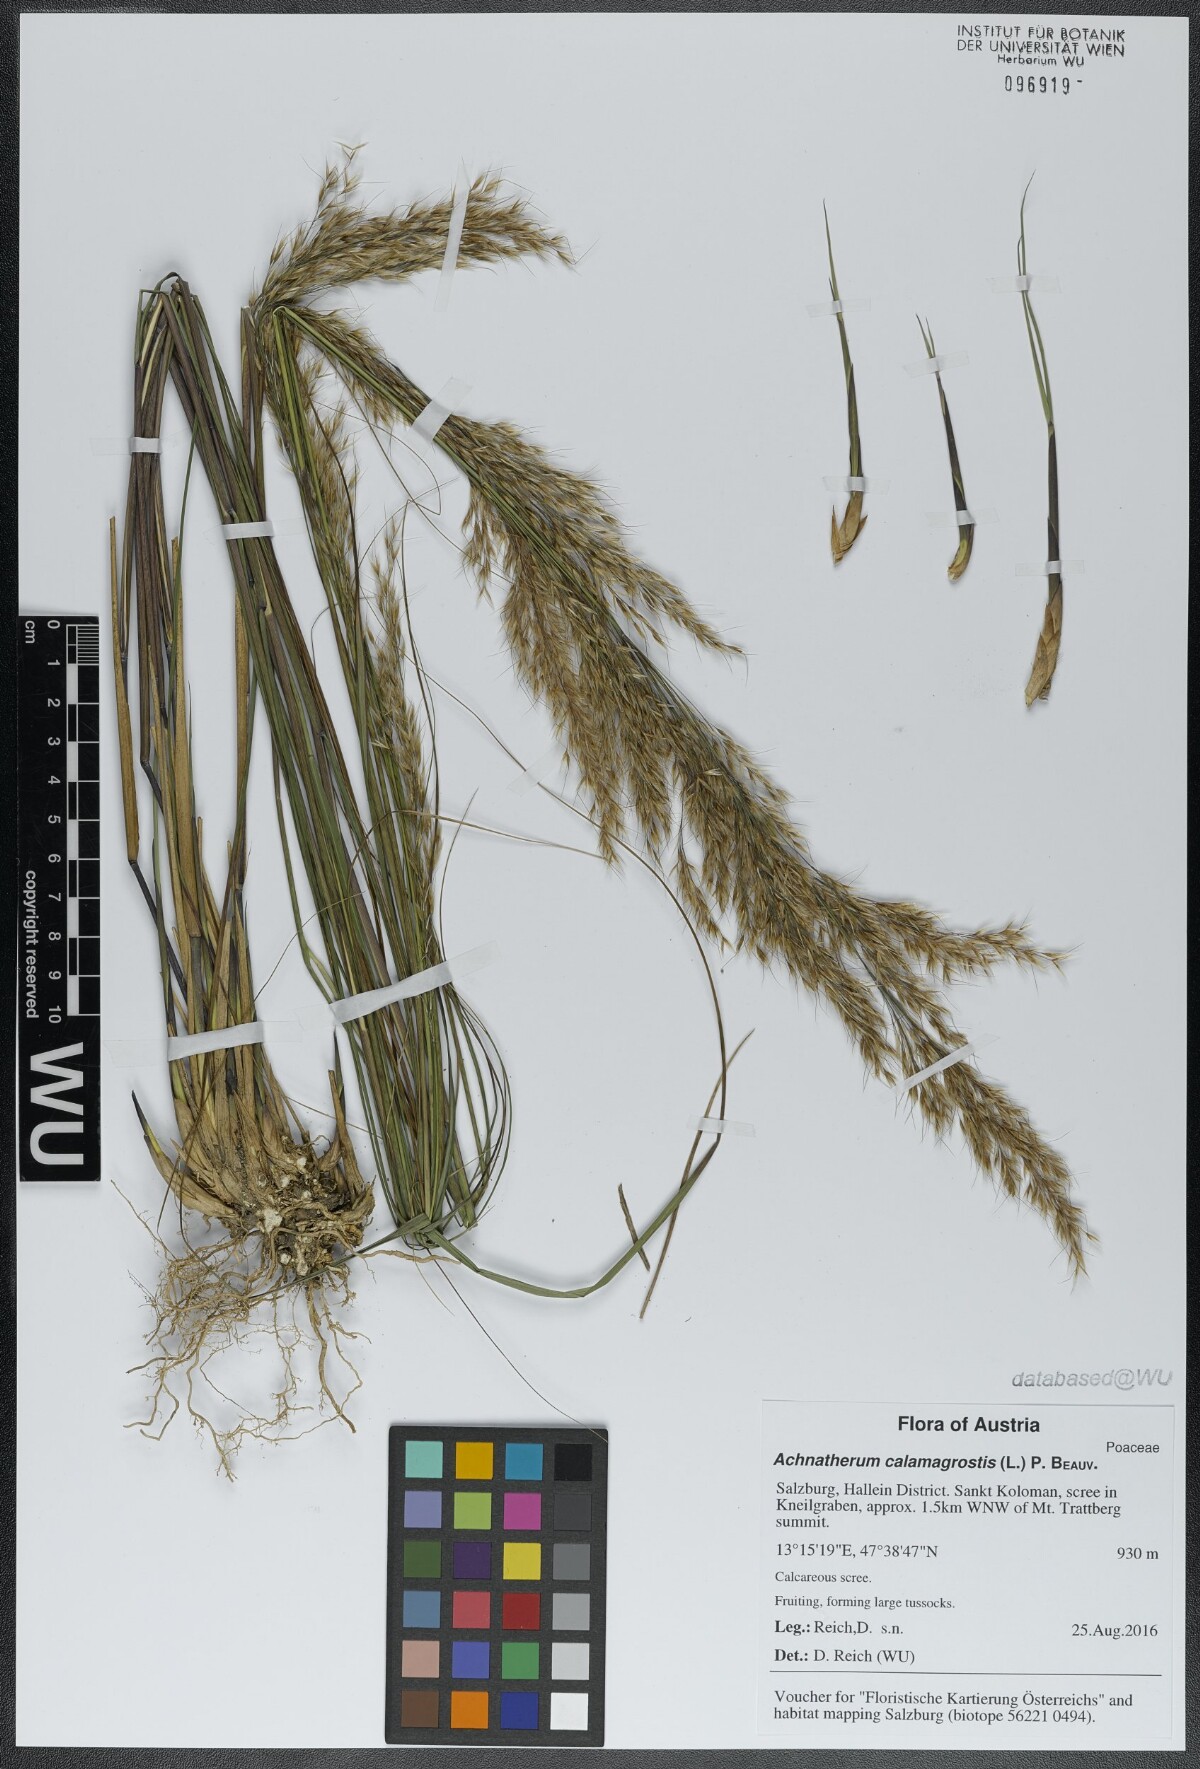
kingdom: Plantae
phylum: Tracheophyta
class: Liliopsida
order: Poales
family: Poaceae
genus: Achnatherum
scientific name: Achnatherum calamagrostis
